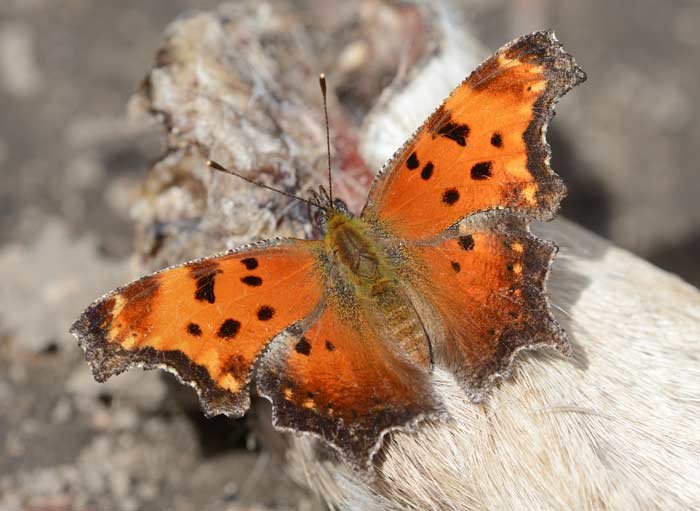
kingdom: Animalia
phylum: Arthropoda
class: Insecta
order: Lepidoptera
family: Nymphalidae
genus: Polygonia
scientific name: Polygonia progne
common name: Gray Comma
